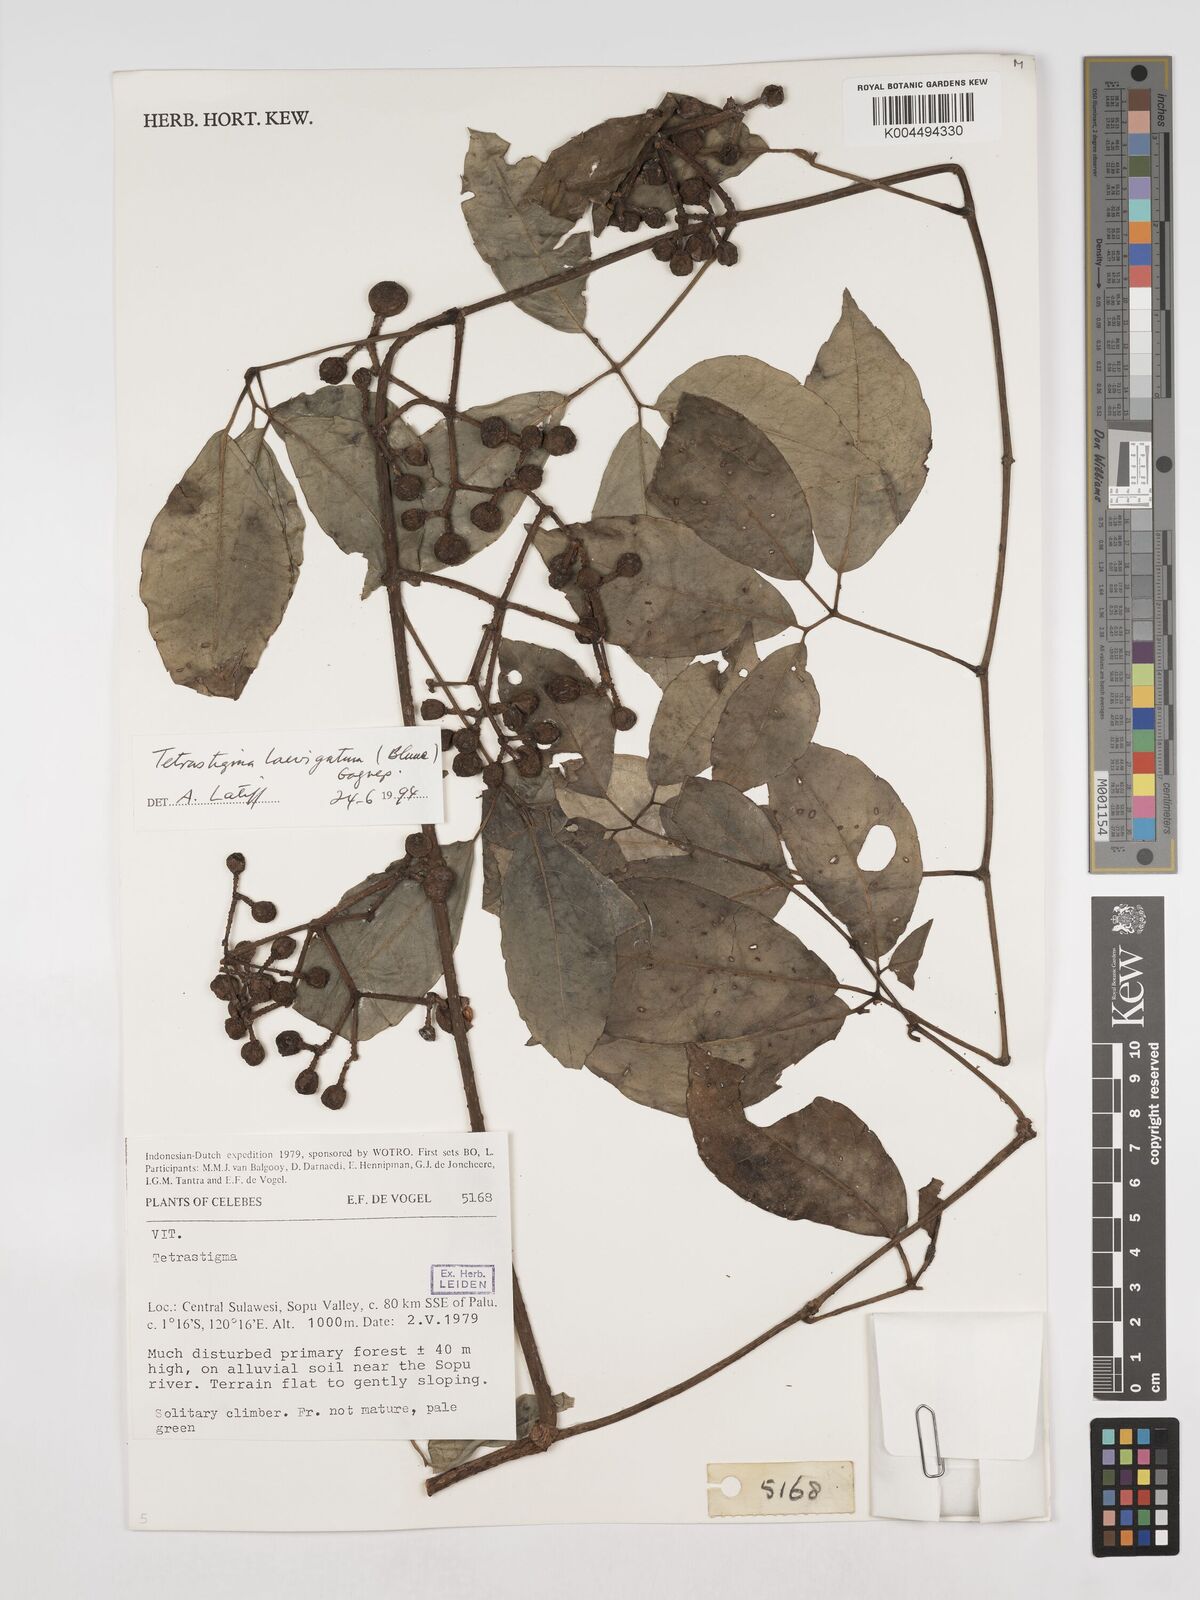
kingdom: Plantae
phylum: Tracheophyta
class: Magnoliopsida
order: Vitales
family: Vitaceae
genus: Tetrastigma
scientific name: Tetrastigma laevigatum
